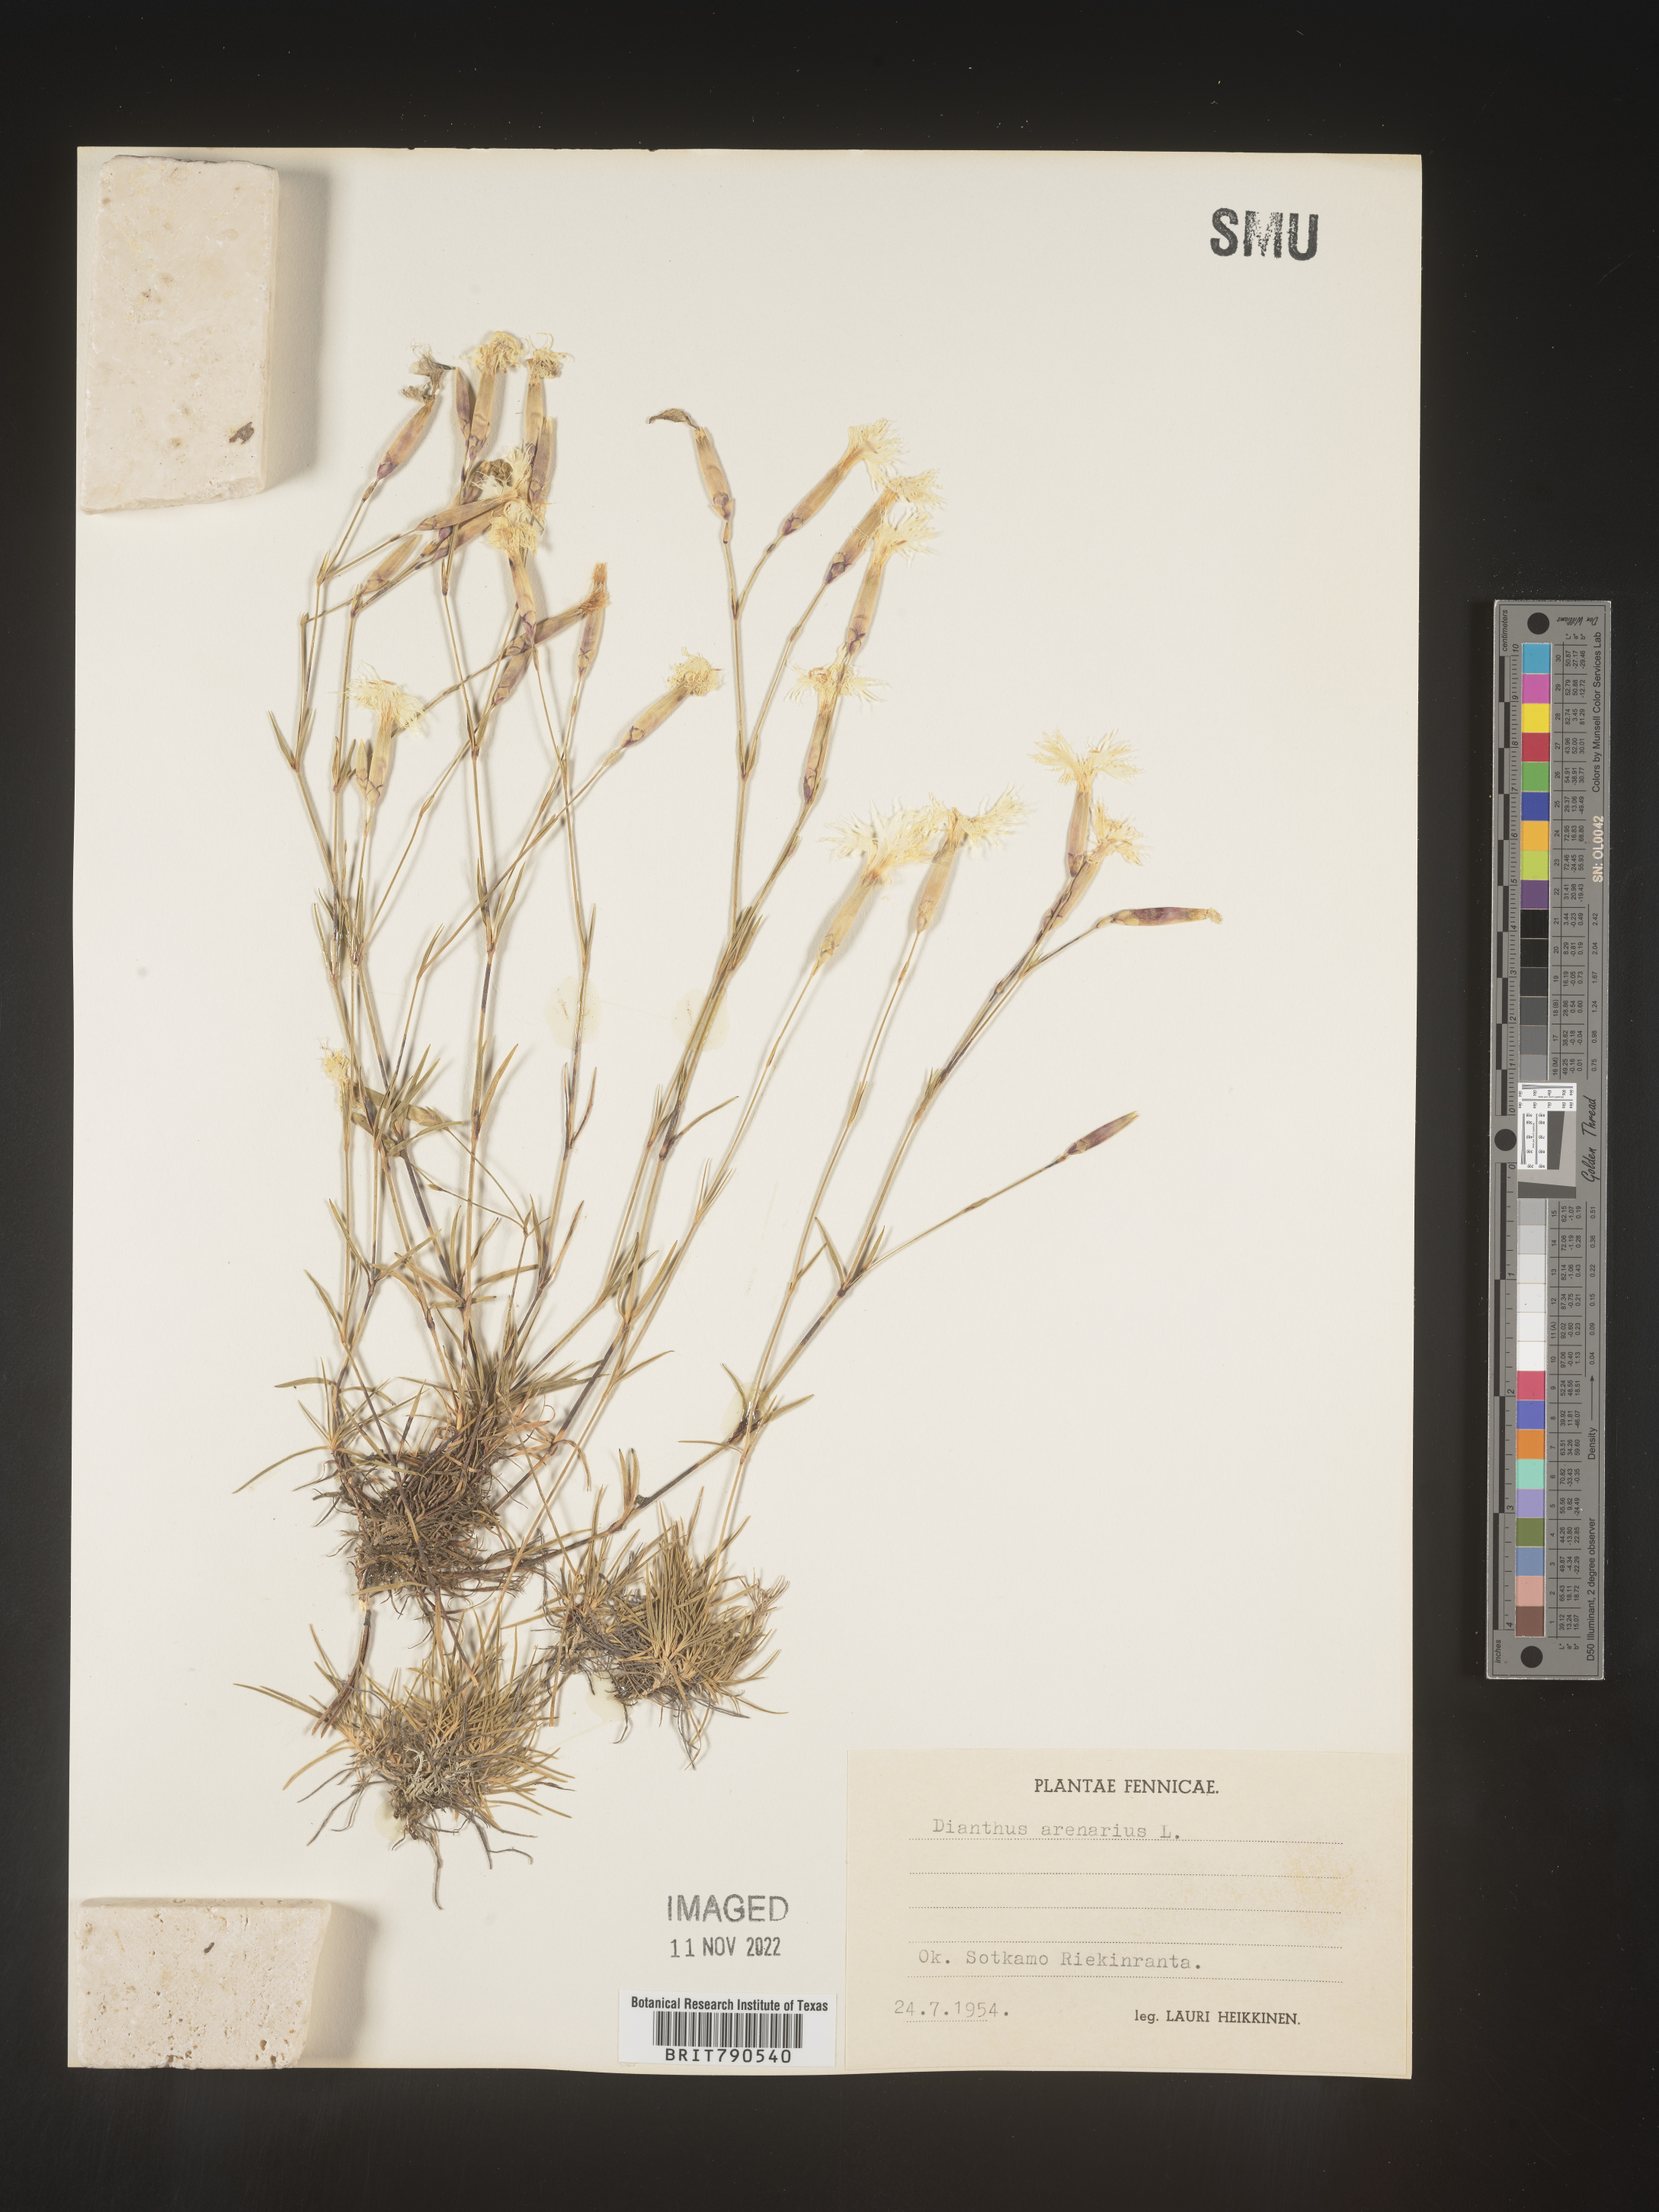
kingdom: Plantae
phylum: Tracheophyta
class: Magnoliopsida
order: Caryophyllales
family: Caryophyllaceae
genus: Dianthus
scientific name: Dianthus
